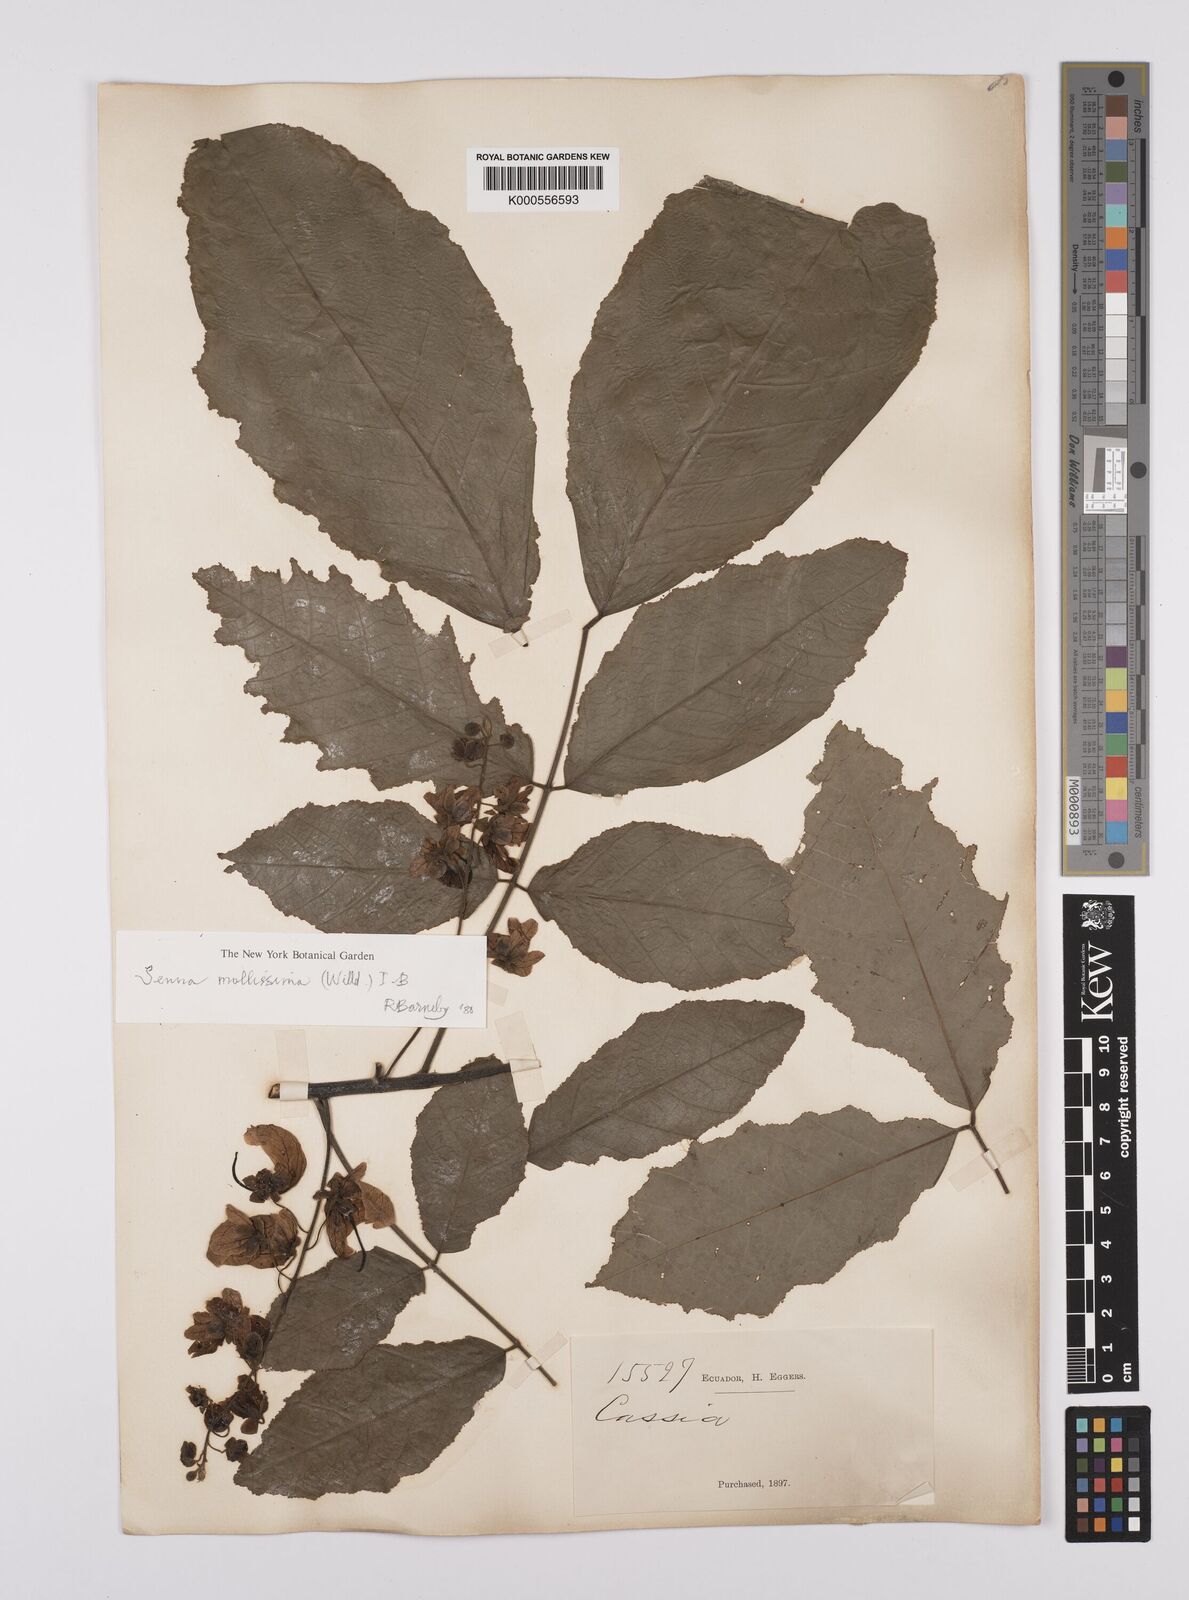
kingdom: Plantae
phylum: Tracheophyta
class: Magnoliopsida
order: Fabales
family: Fabaceae
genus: Senna
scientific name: Senna mollissima
